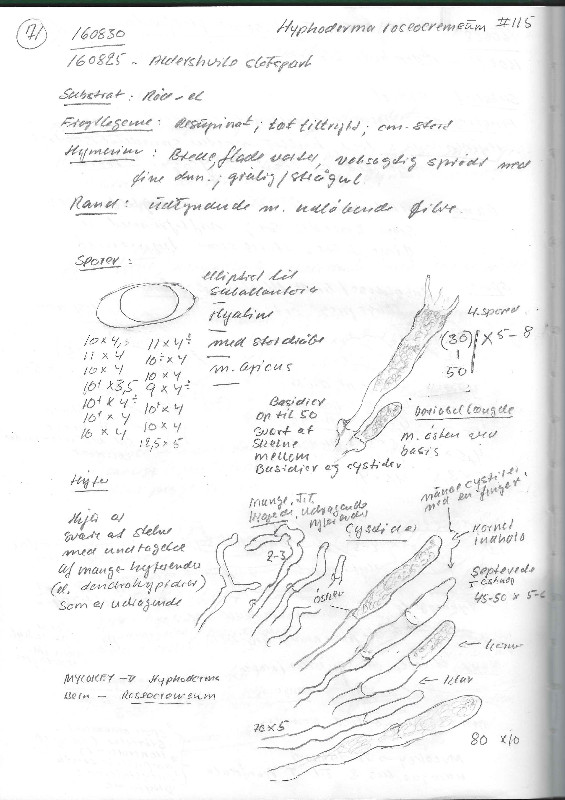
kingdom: Fungi
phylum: Basidiomycota
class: Agaricomycetes
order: Polyporales
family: Hyphodermataceae
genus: Hyphoderma
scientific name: Hyphoderma roseocremeum
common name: lillaplettet kalkskind
